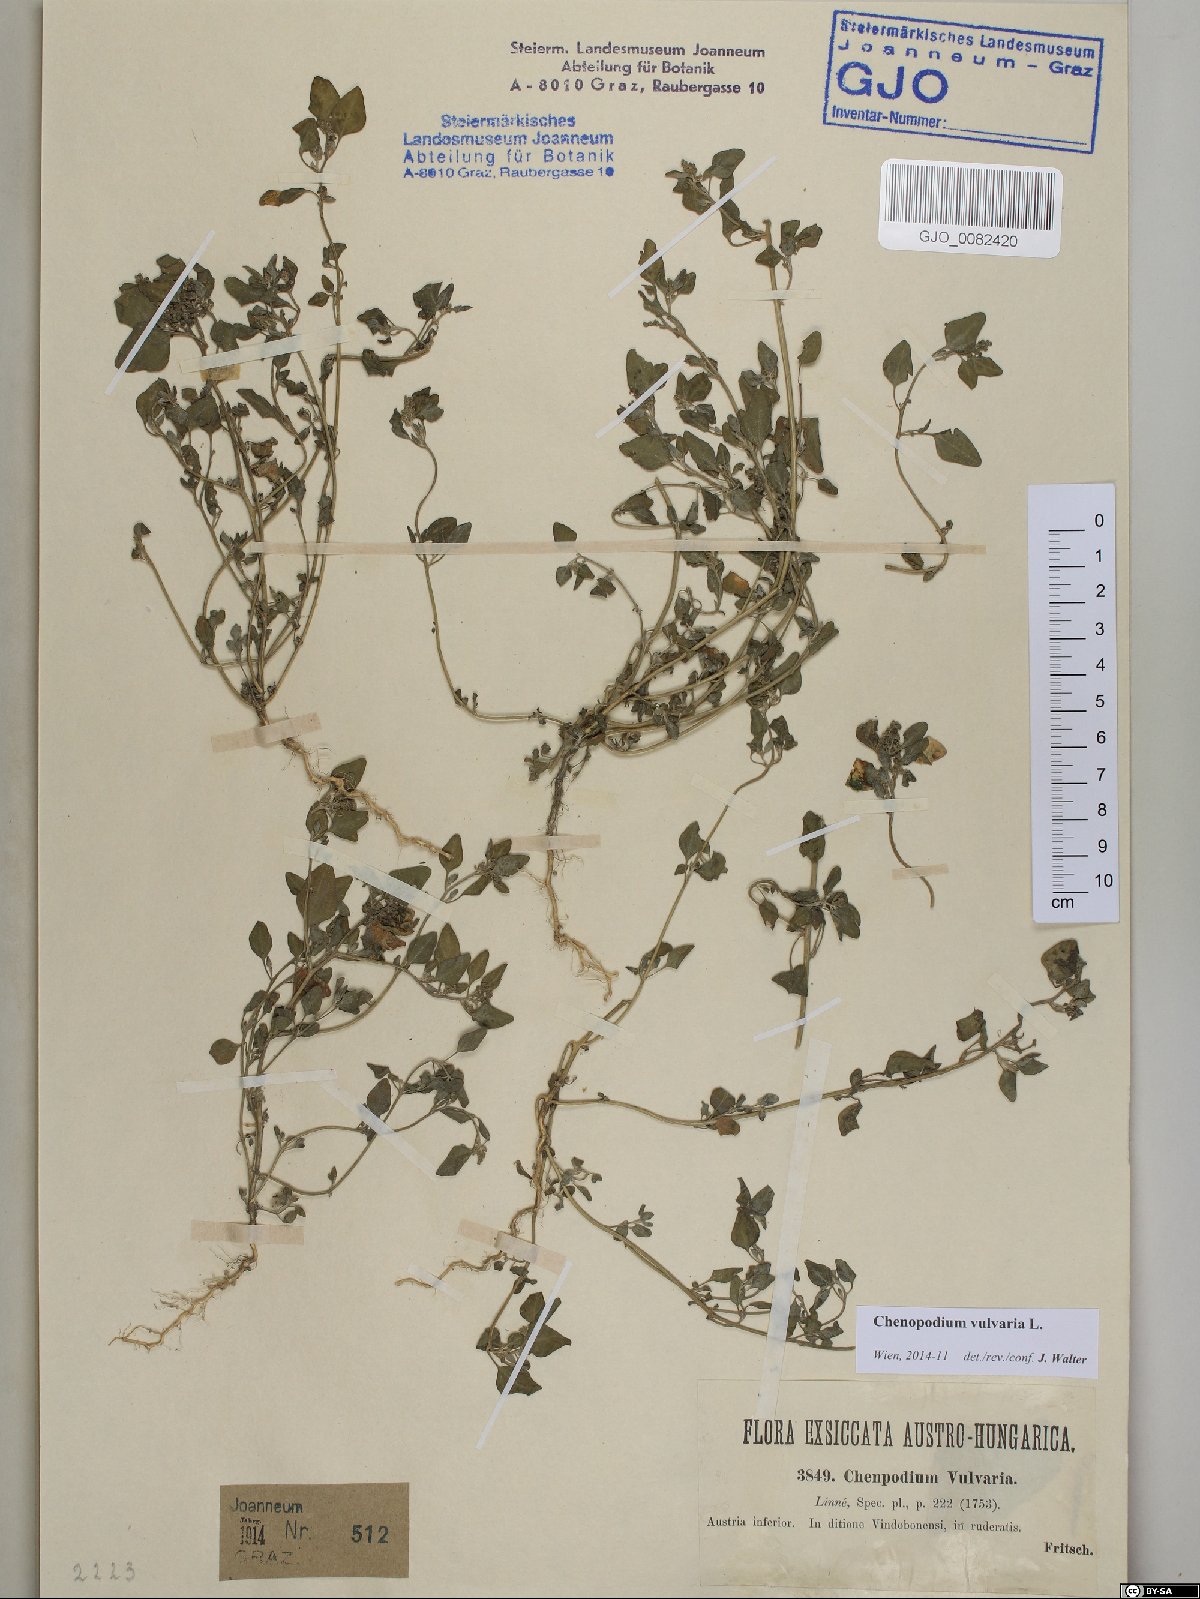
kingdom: Plantae
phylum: Tracheophyta
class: Magnoliopsida
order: Caryophyllales
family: Amaranthaceae
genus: Chenopodium
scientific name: Chenopodium vulvaria
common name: Stinking goosefoot
